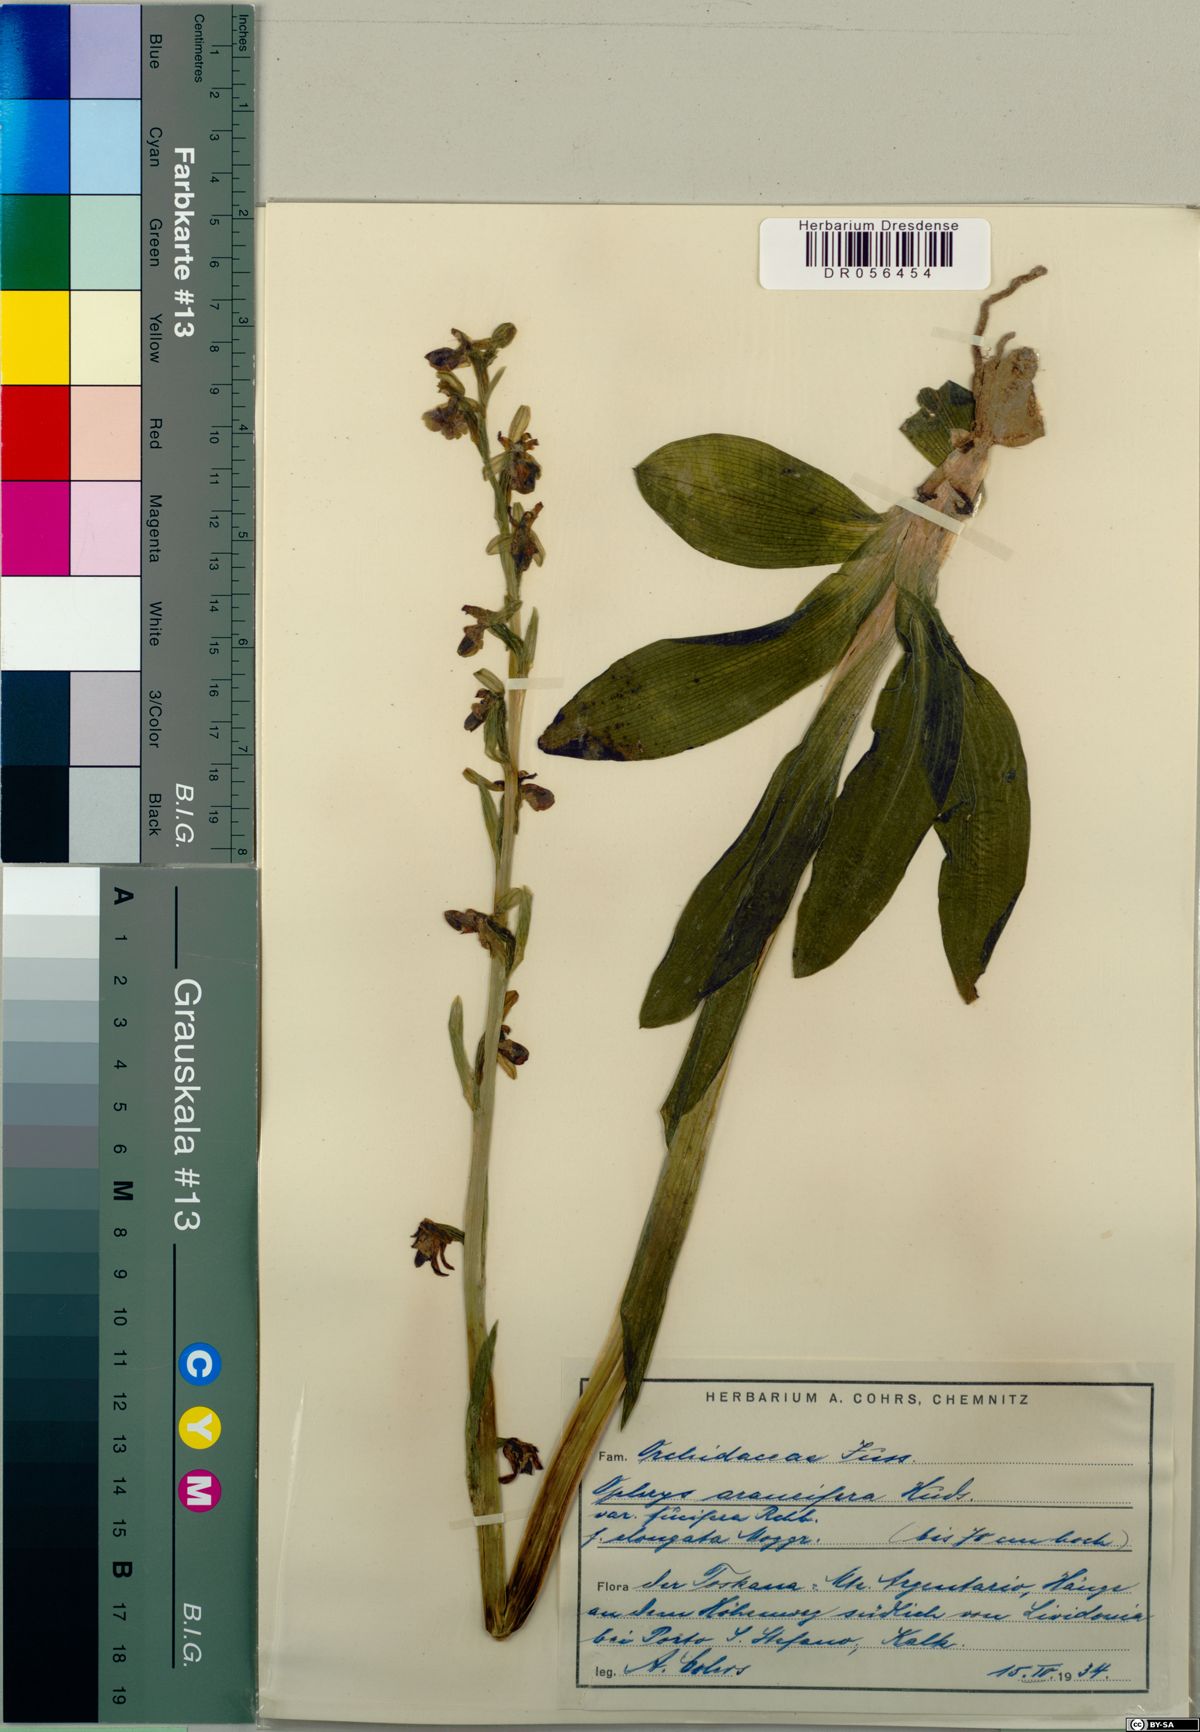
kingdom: Plantae
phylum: Tracheophyta
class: Liliopsida
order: Asparagales
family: Orchidaceae
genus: Ophrys
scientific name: Ophrys sphegodes
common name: Early spider-orchid
